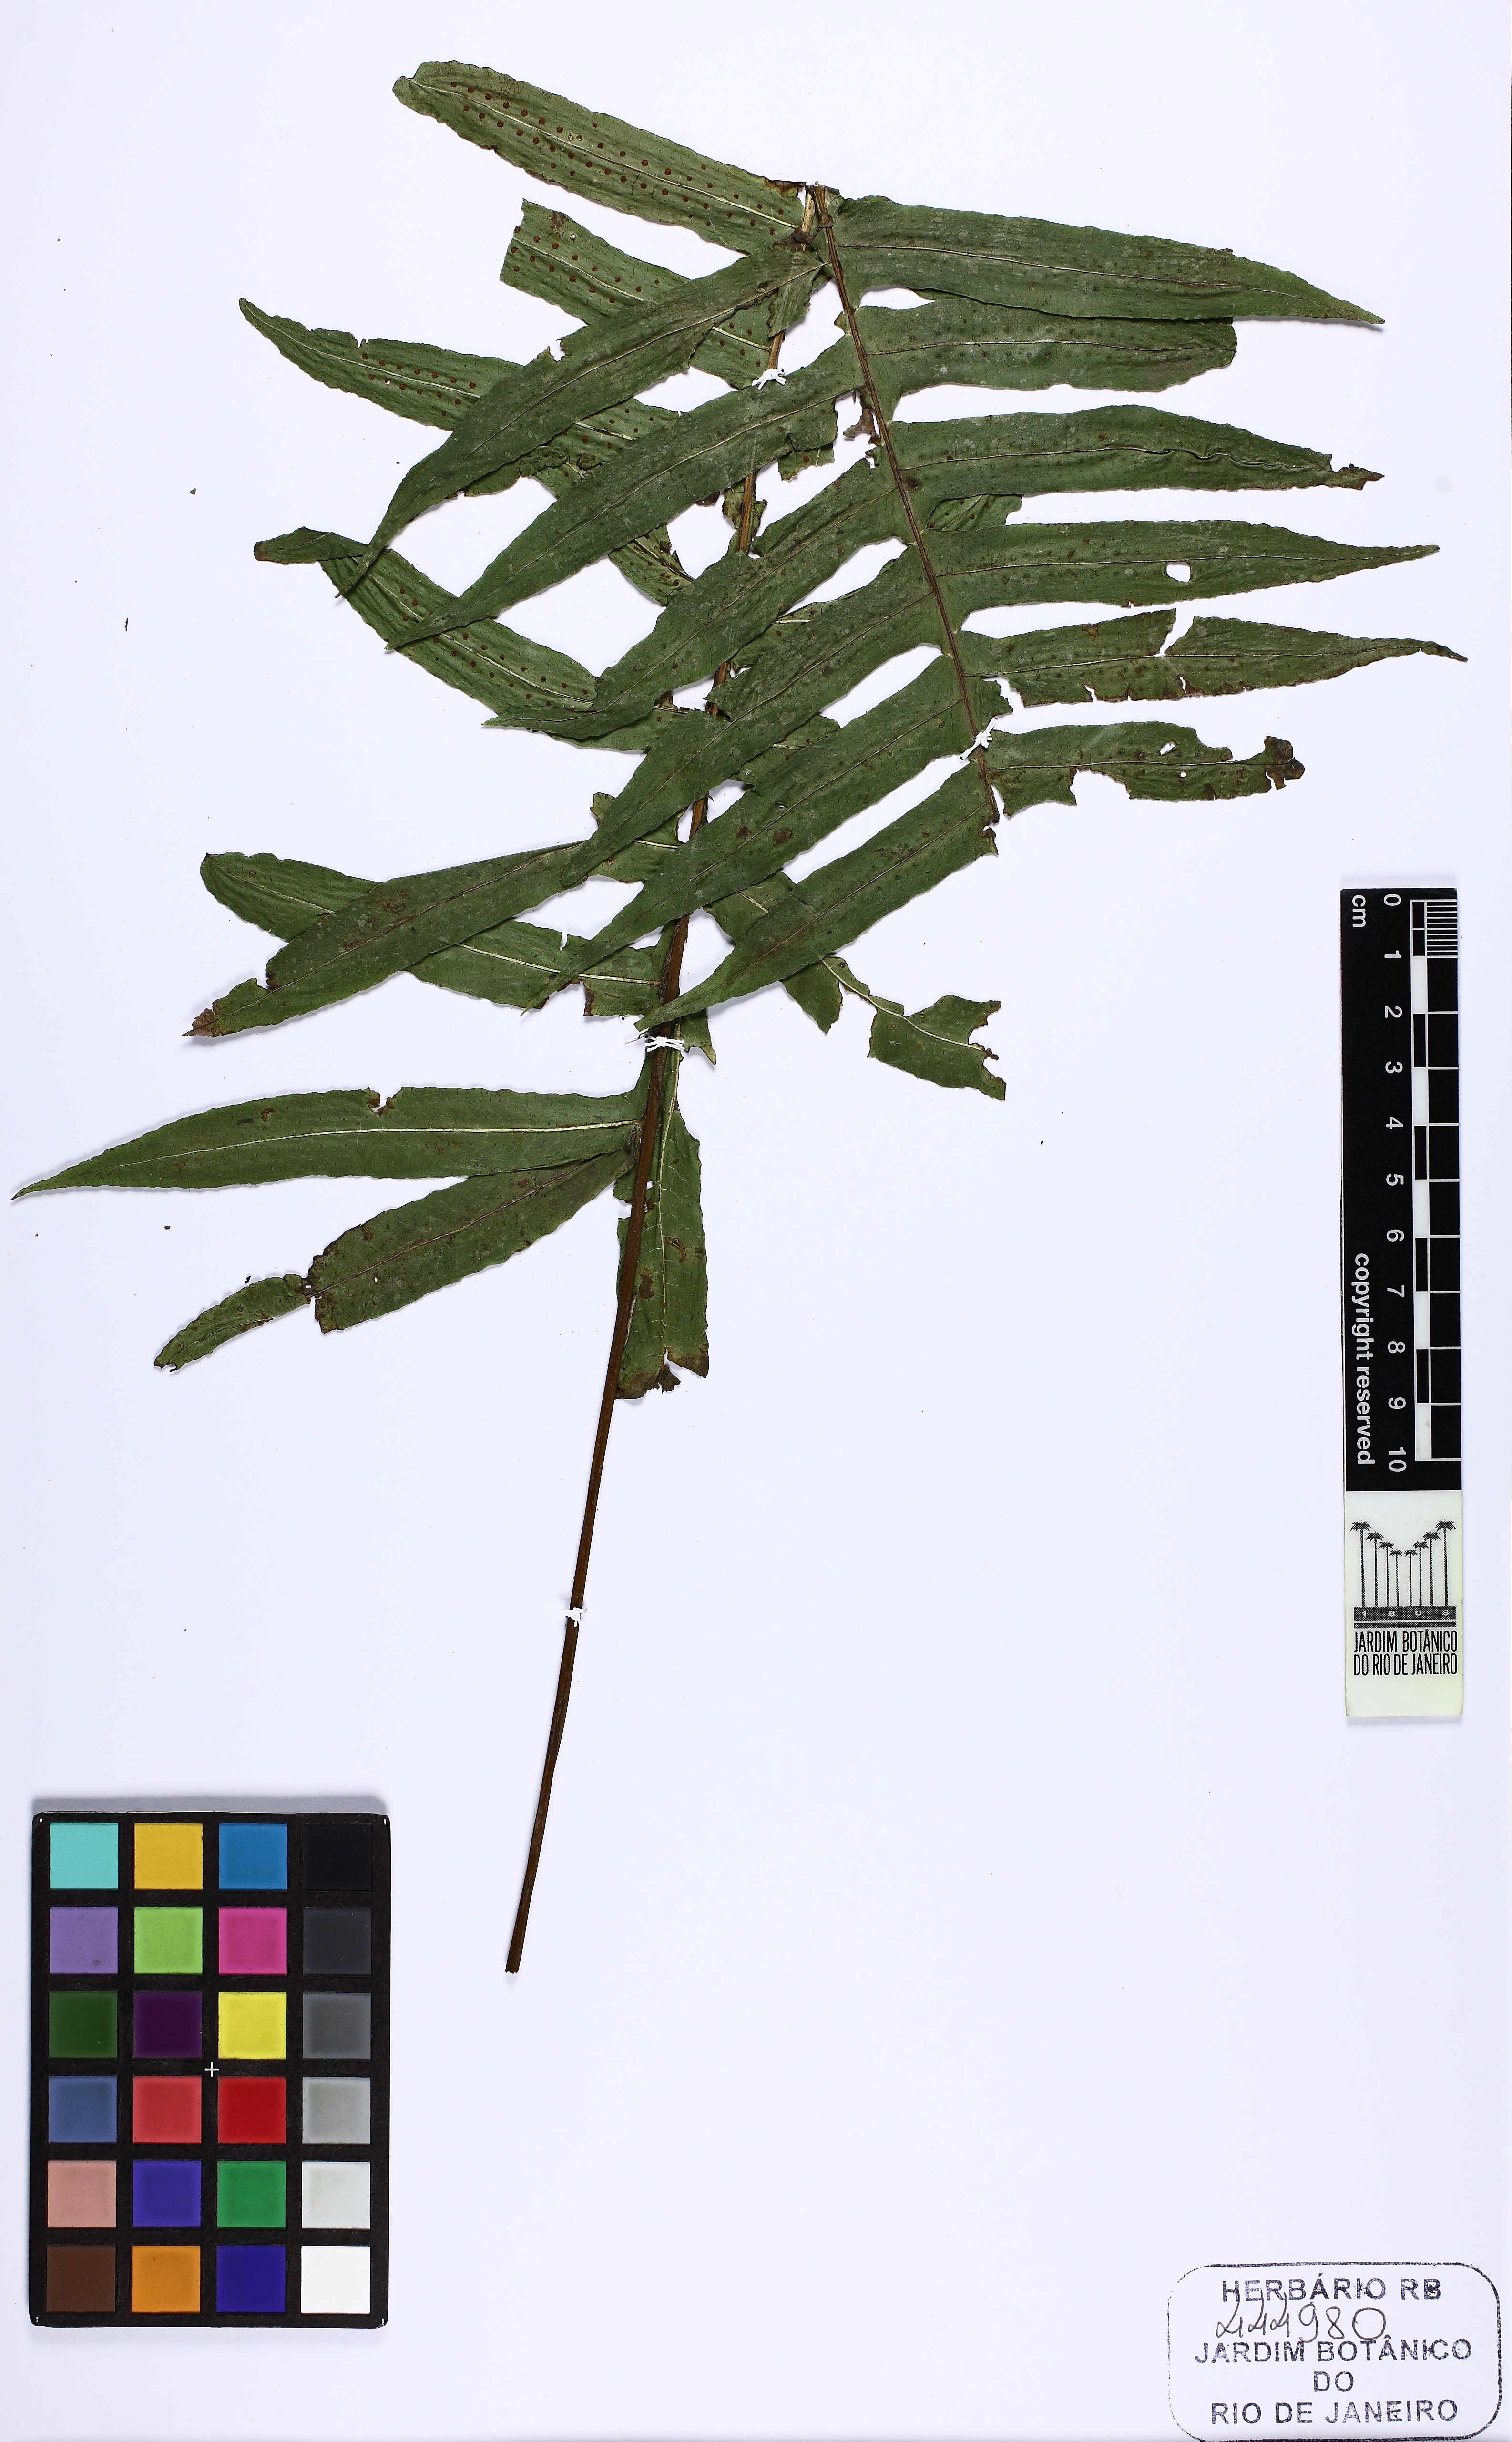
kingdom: Plantae
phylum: Tracheophyta
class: Polypodiopsida
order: Polypodiales
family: Polypodiaceae
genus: Serpocaulon
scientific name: Serpocaulon laetum
